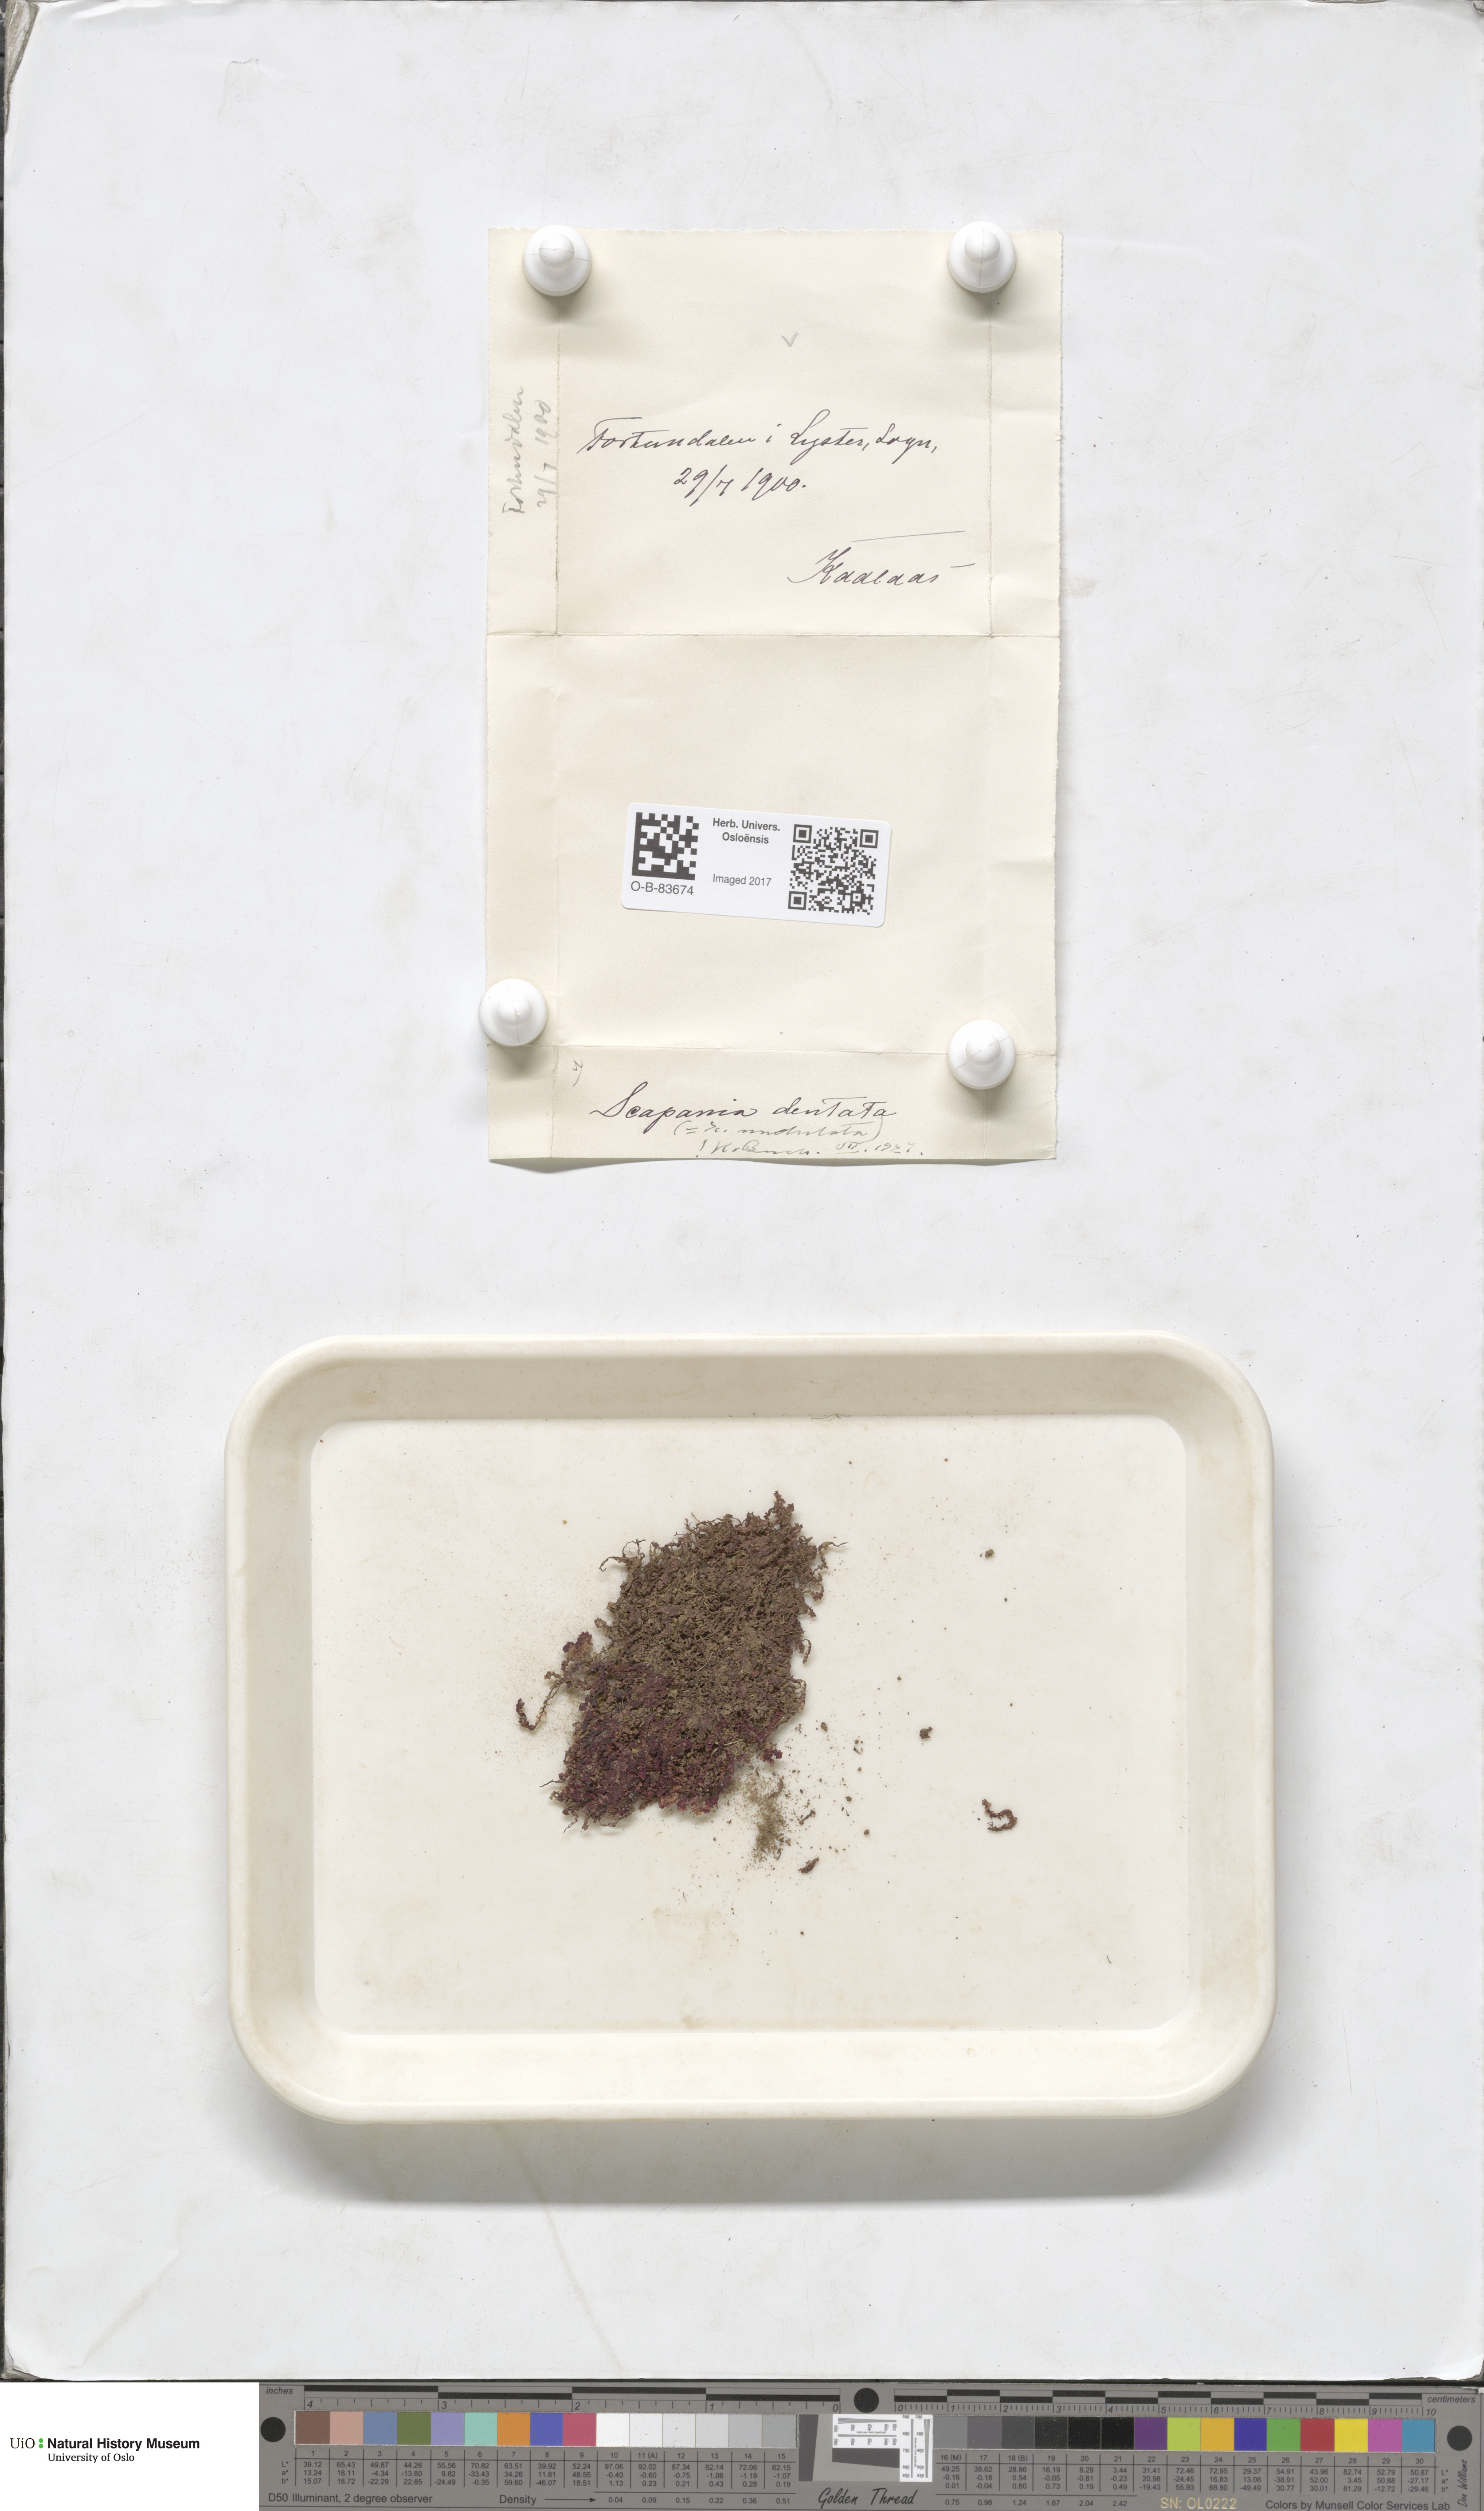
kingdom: Plantae
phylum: Marchantiophyta
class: Jungermanniopsida
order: Jungermanniales
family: Scapaniaceae
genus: Scapania
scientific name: Scapania undulata
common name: Water earwort
